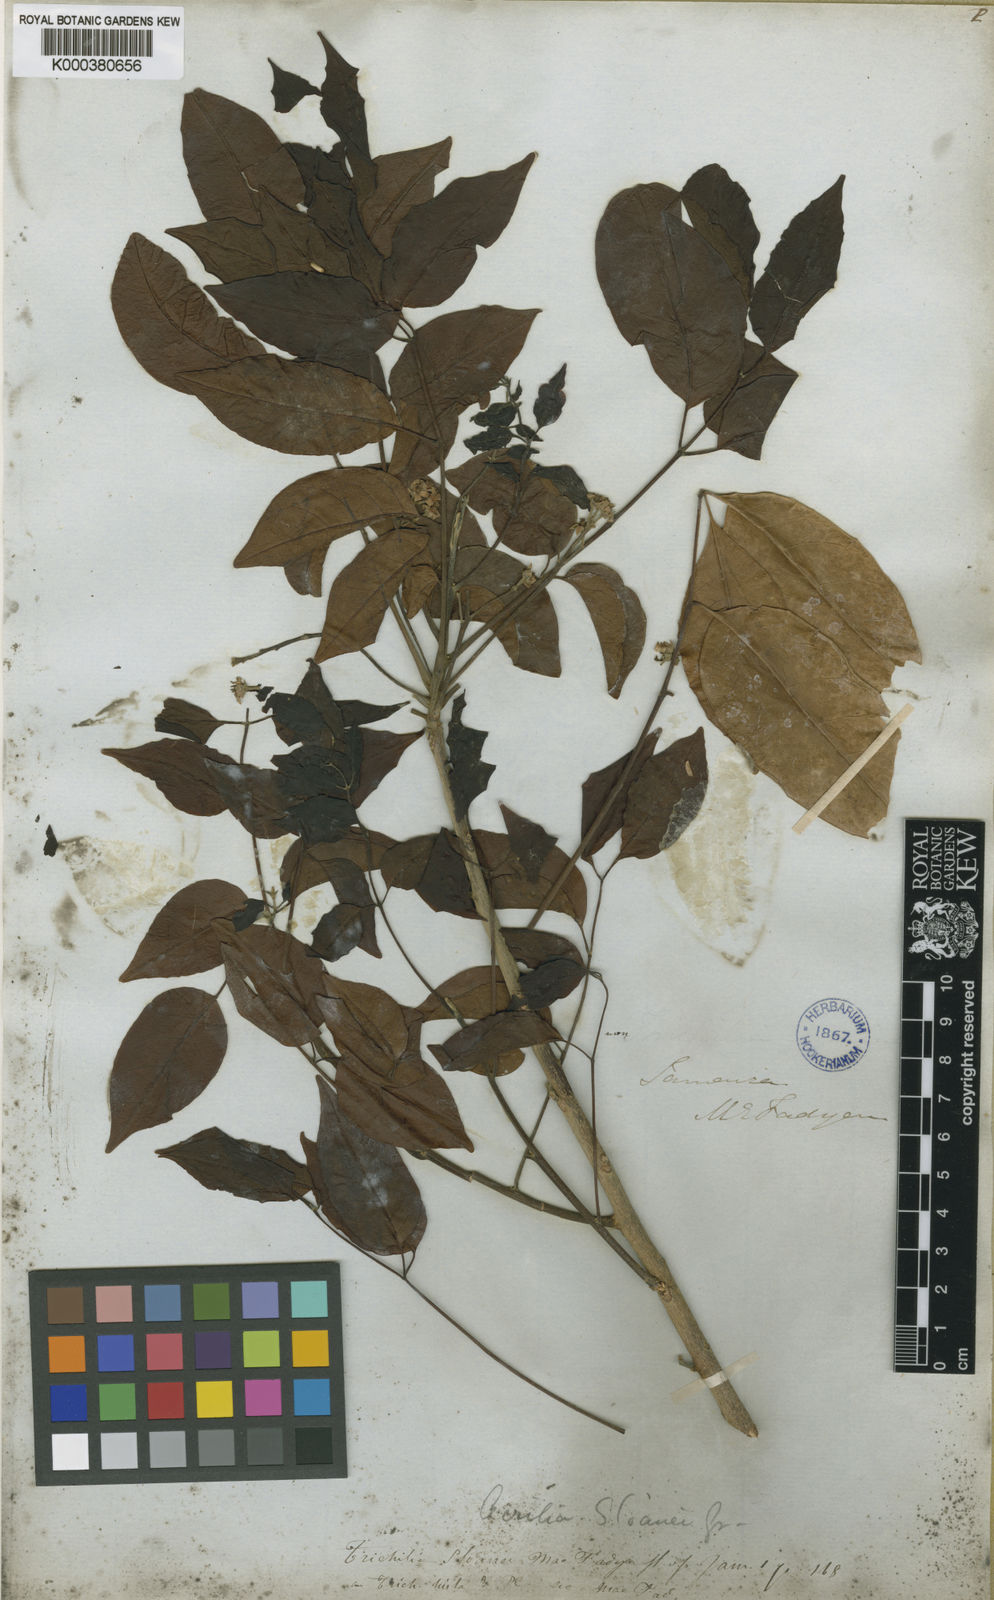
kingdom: Plantae
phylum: Tracheophyta
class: Magnoliopsida
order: Sapindales
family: Meliaceae
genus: Trichilia
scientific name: Trichilia glabra
